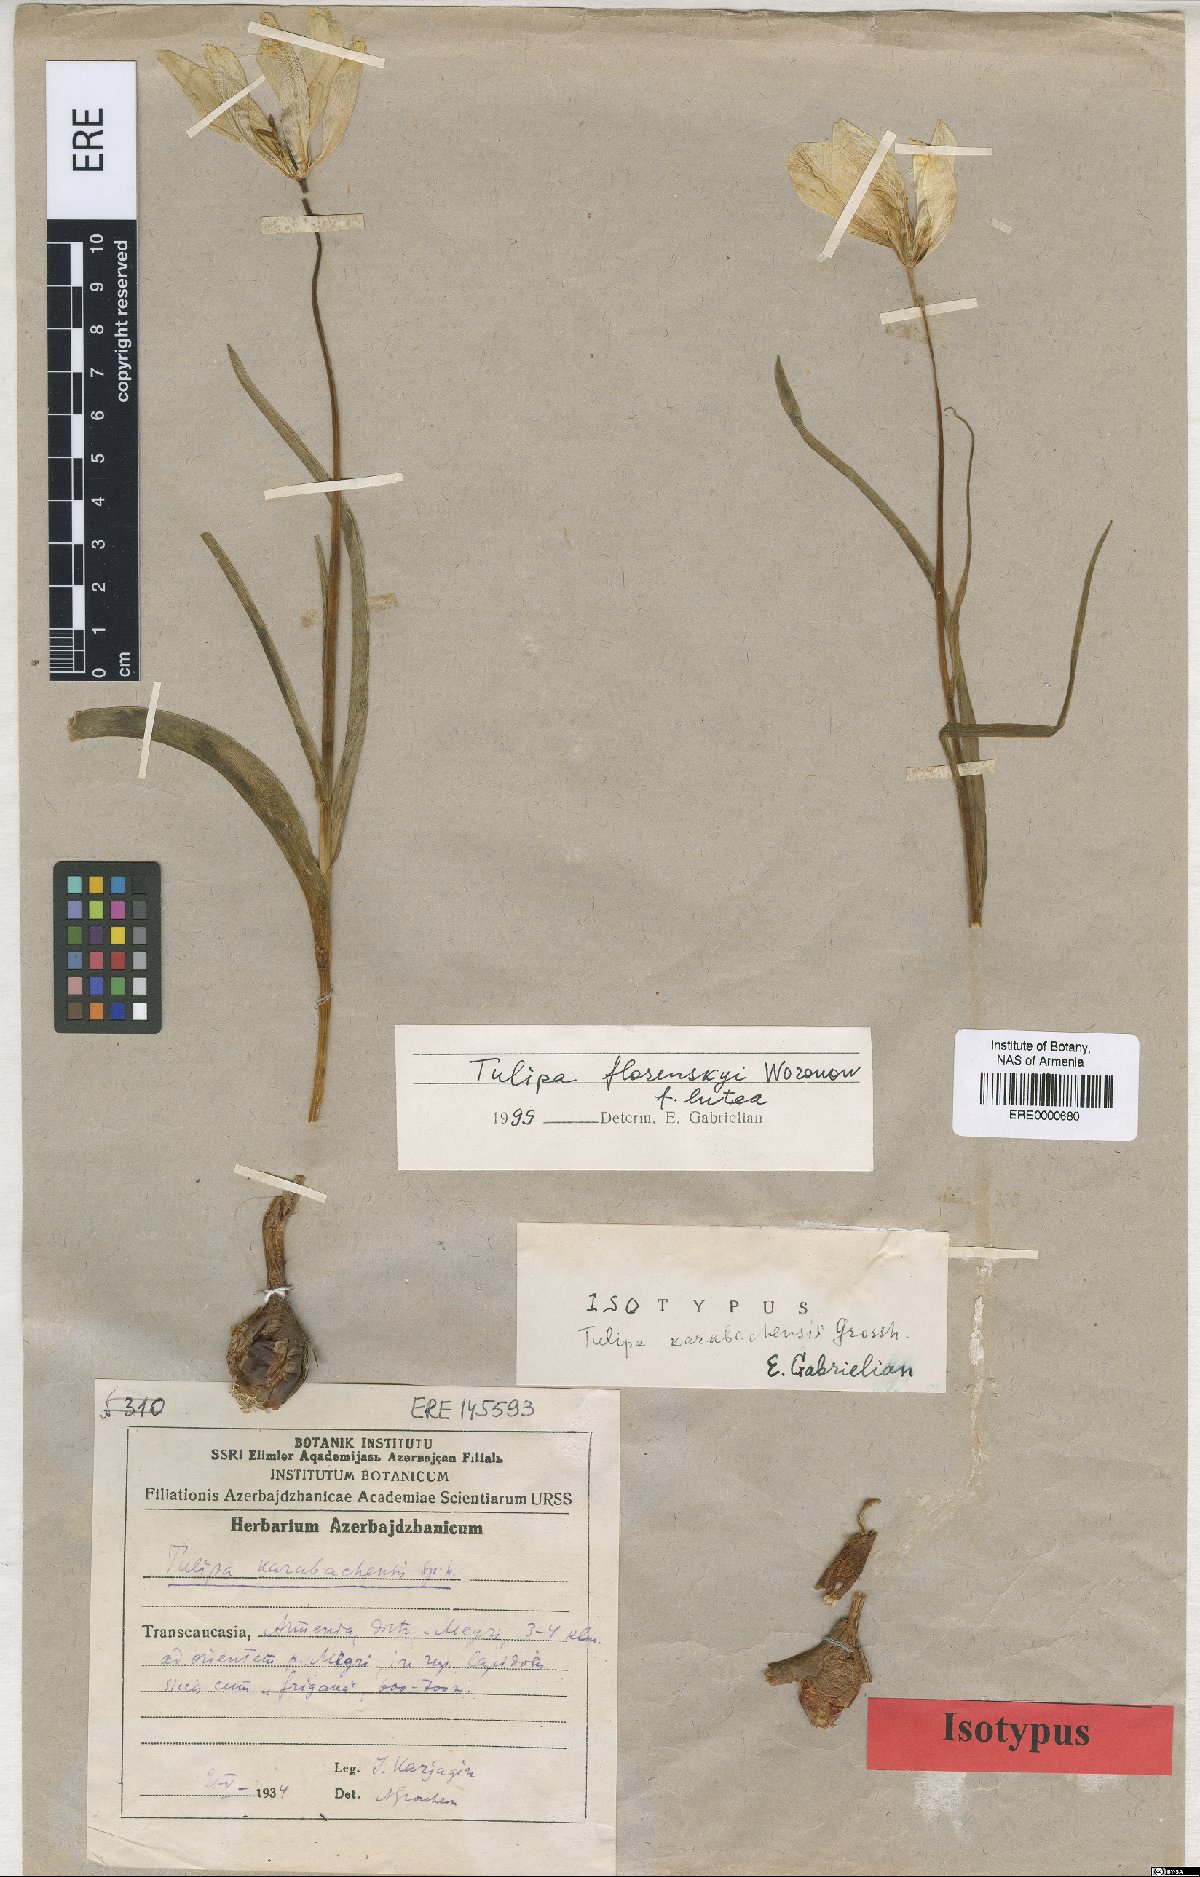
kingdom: Plantae
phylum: Tracheophyta
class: Liliopsida
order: Liliales
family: Liliaceae
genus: Tulipa
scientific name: Tulipa armena
